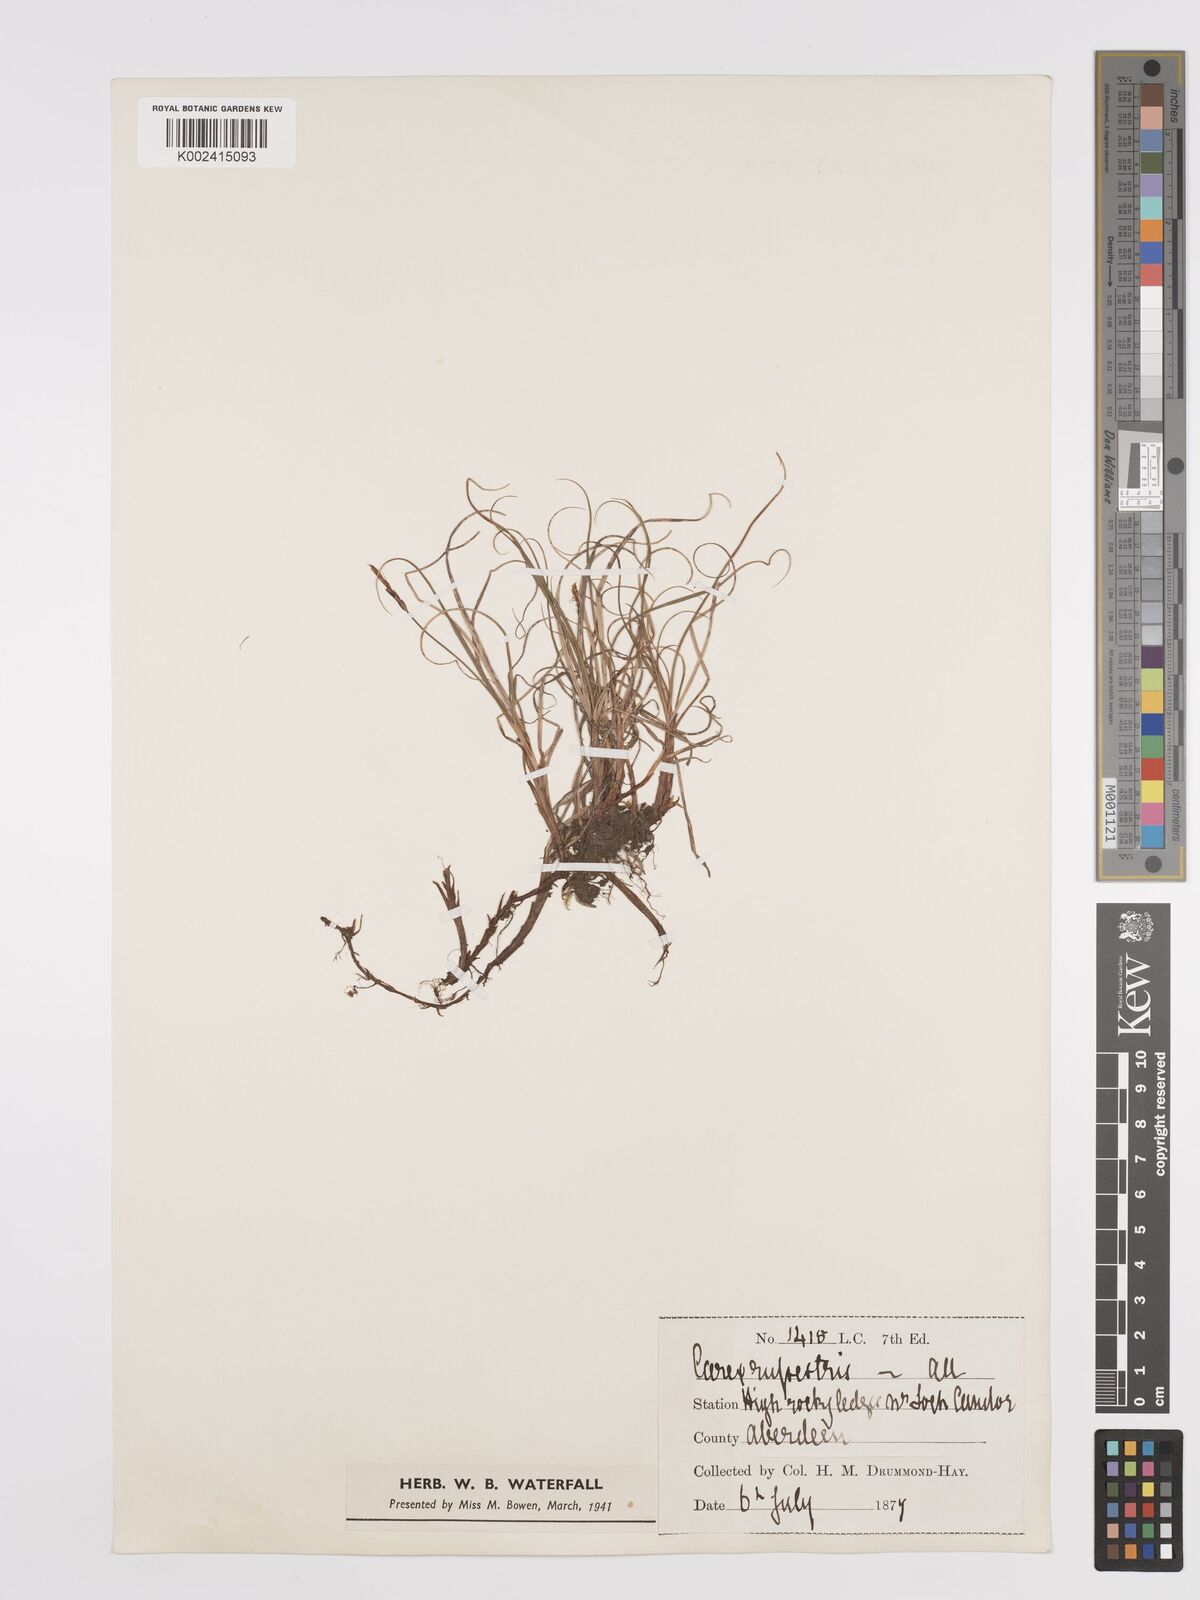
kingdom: Plantae
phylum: Tracheophyta
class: Liliopsida
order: Poales
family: Cyperaceae
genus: Carex
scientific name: Carex rupestris
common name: Rock sedge
